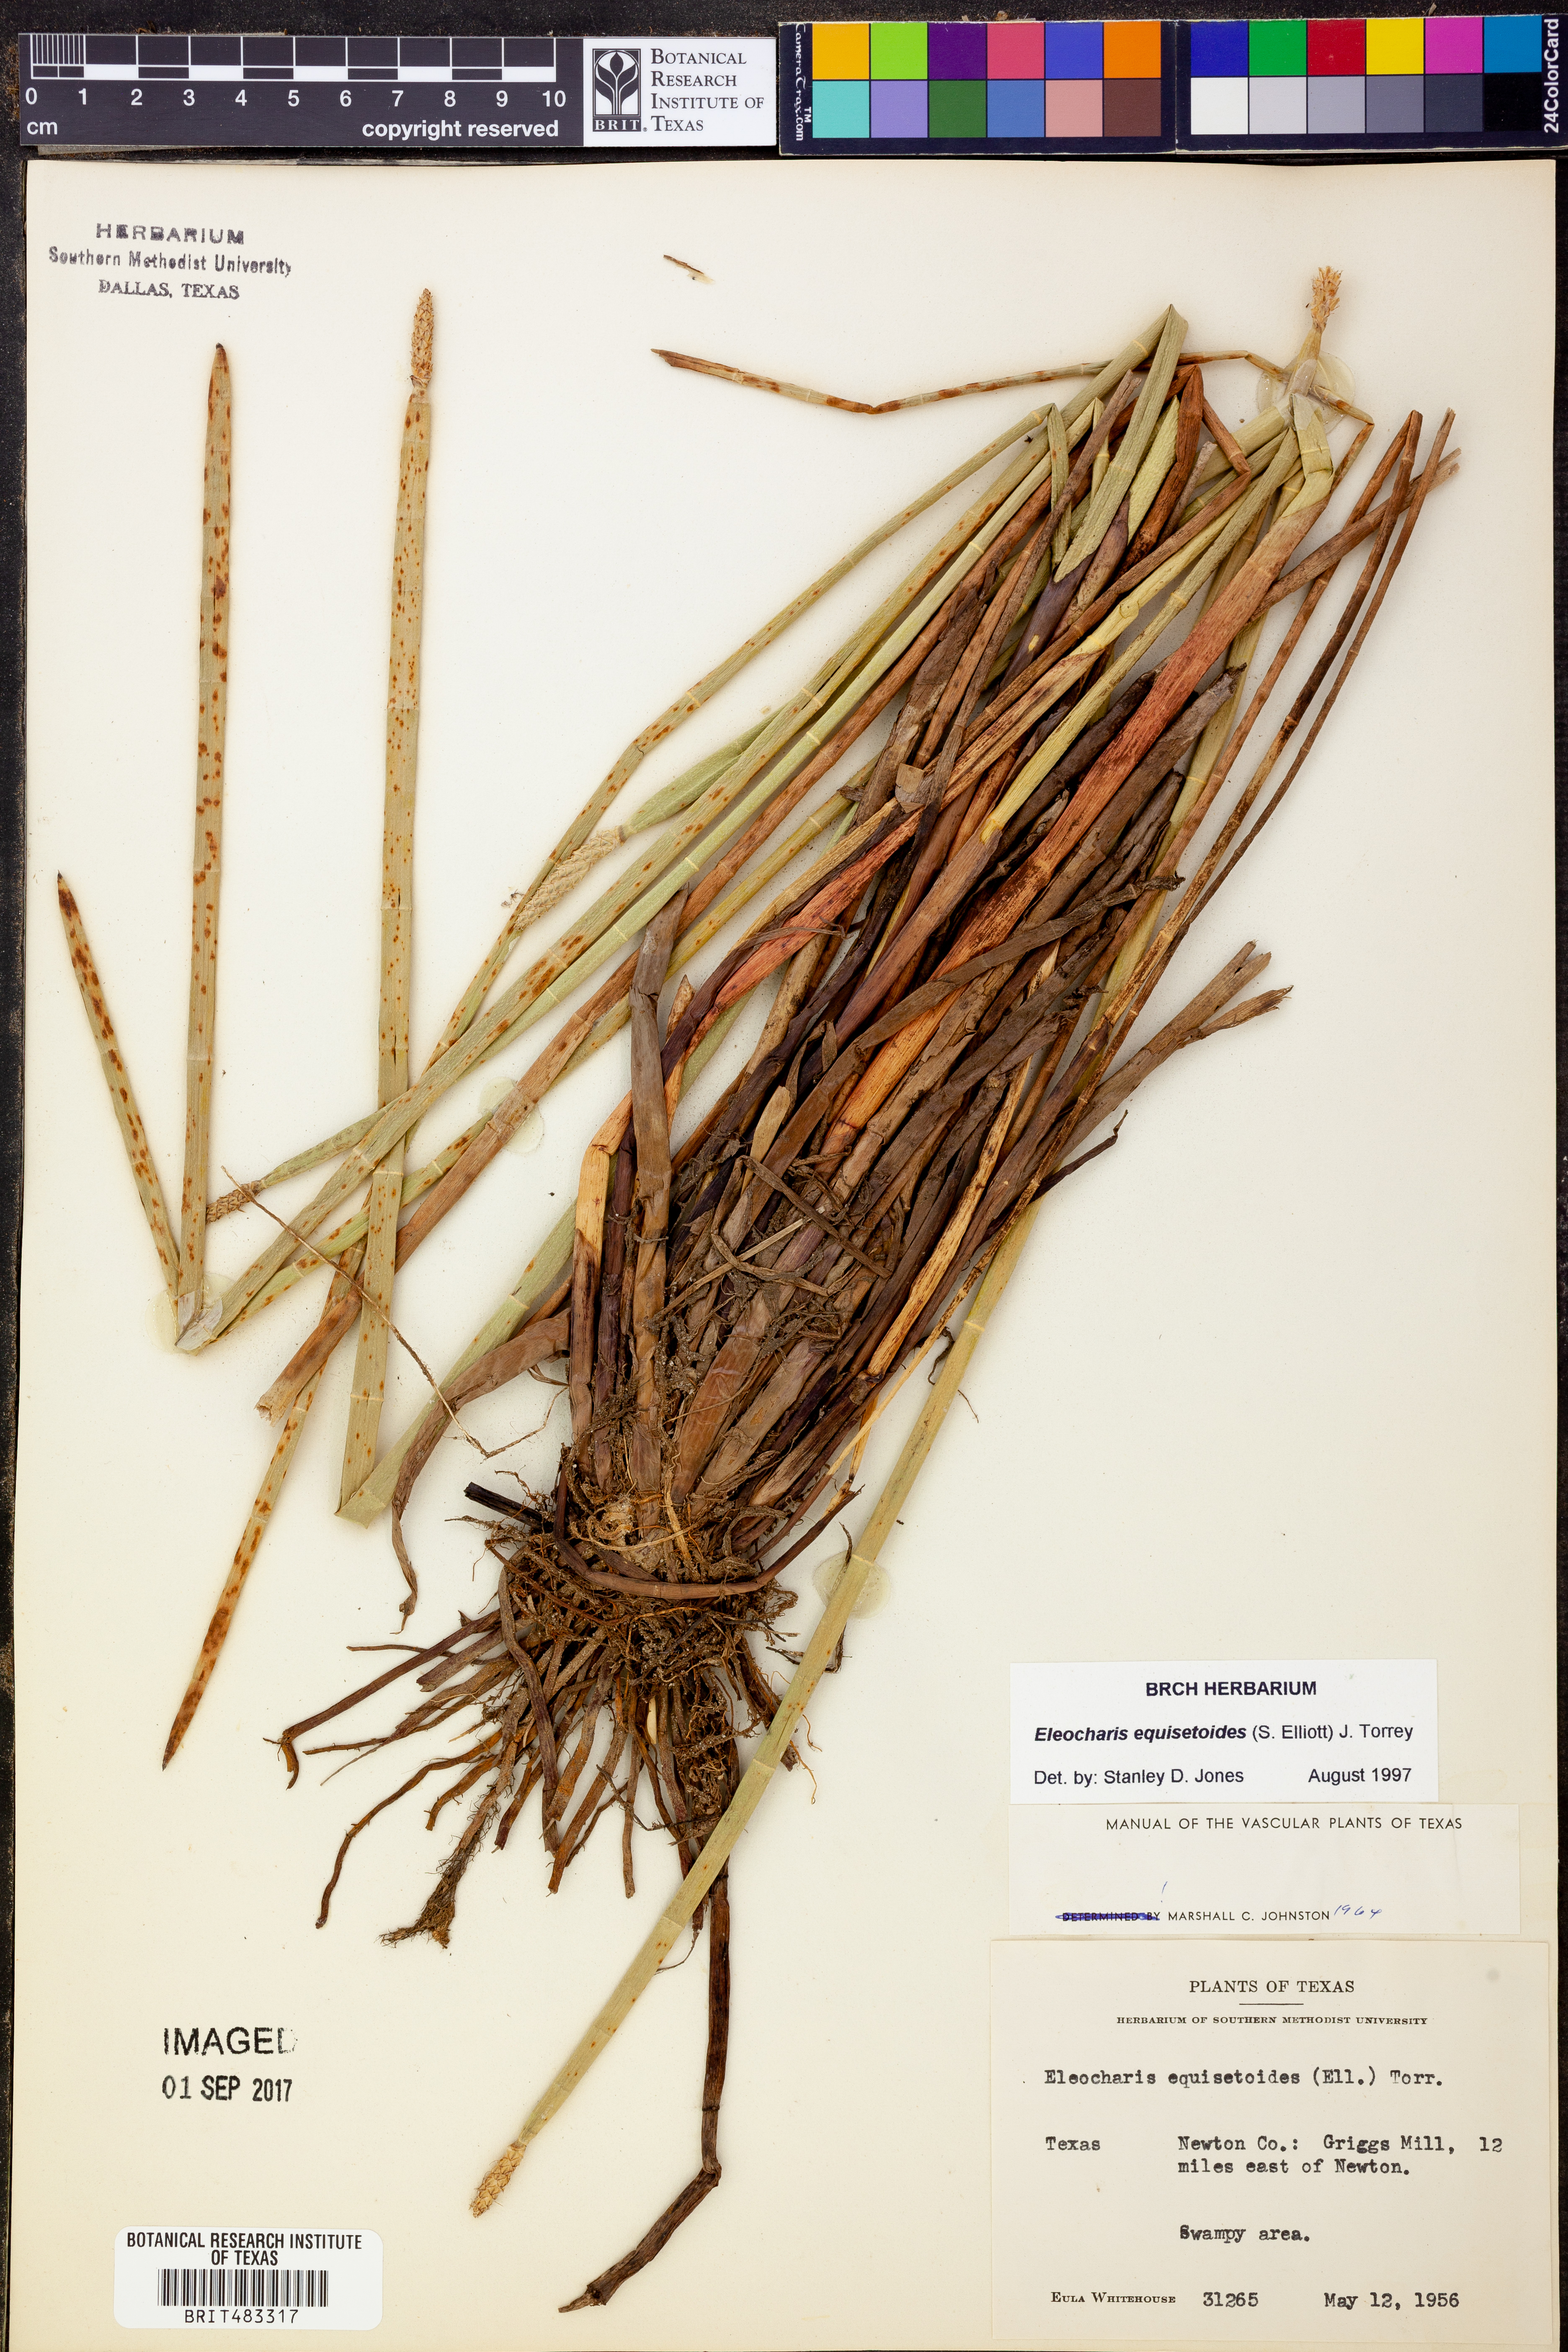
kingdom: Plantae
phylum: Tracheophyta
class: Liliopsida
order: Poales
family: Cyperaceae
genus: Eleocharis
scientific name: Eleocharis equisetoides
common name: Horsetail spike-rush
